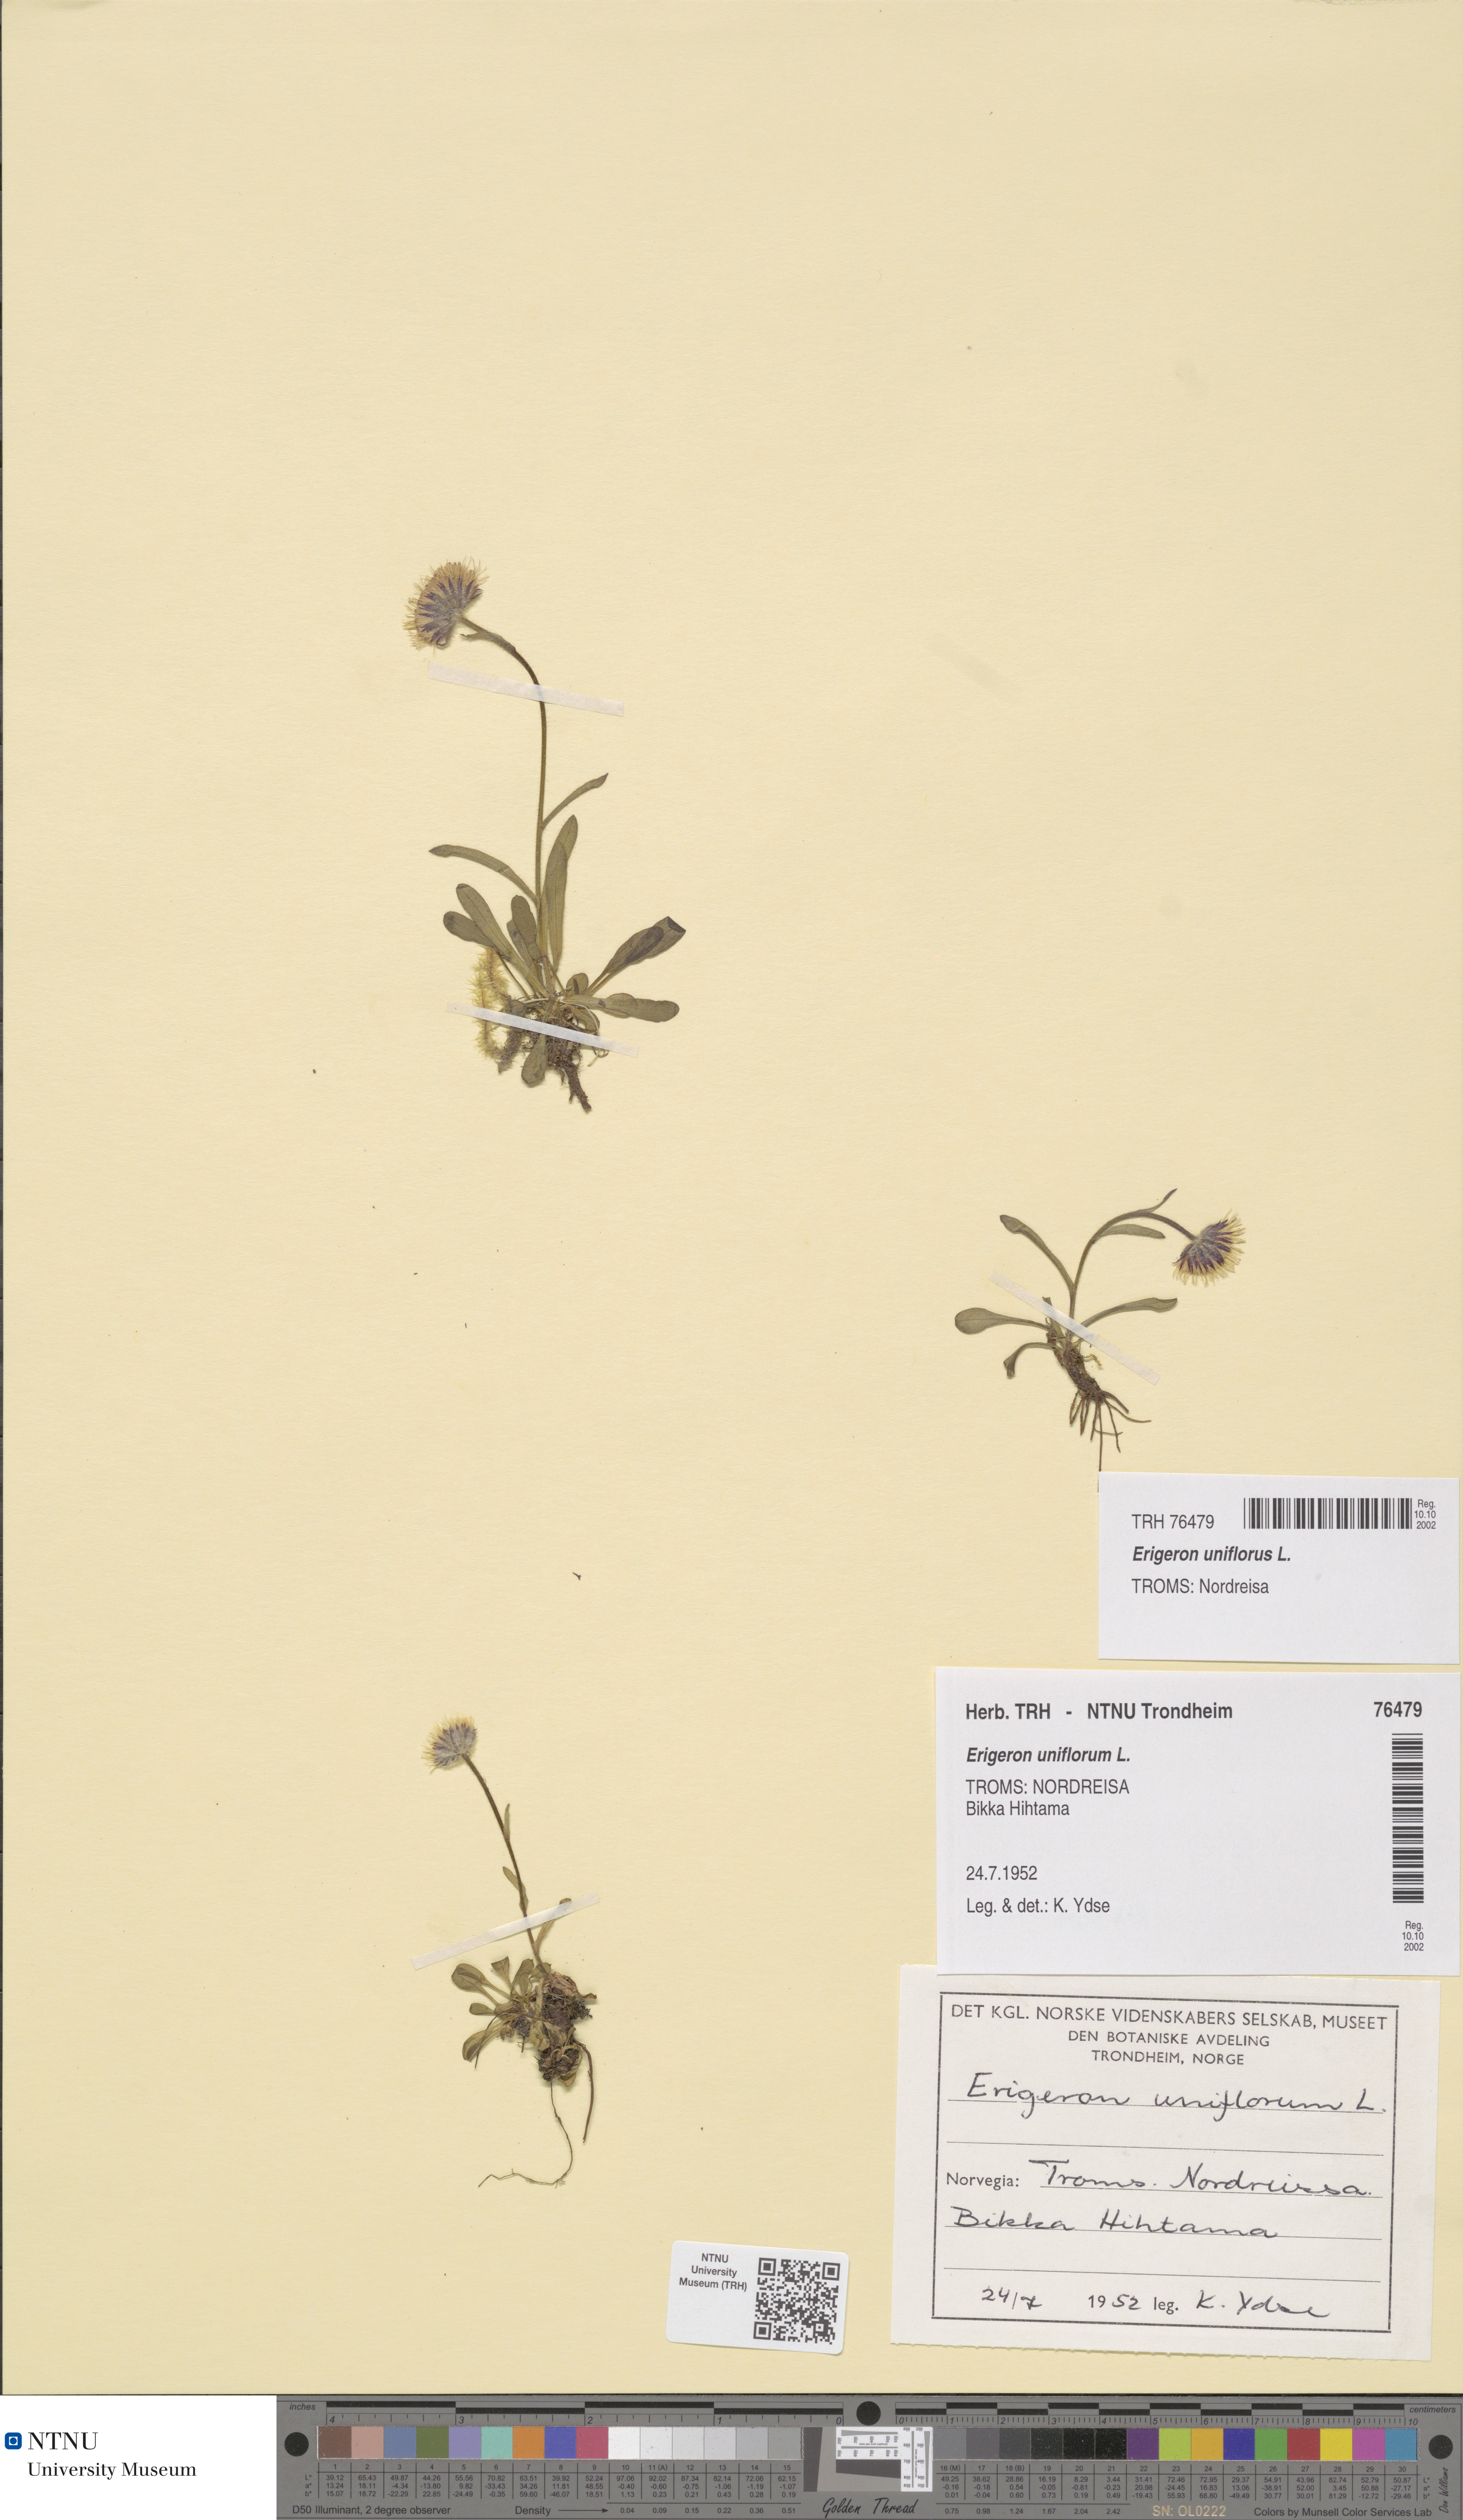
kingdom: Plantae
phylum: Tracheophyta
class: Magnoliopsida
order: Asterales
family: Asteraceae
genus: Erigeron
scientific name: Erigeron uniflorus
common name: Northern daisy
